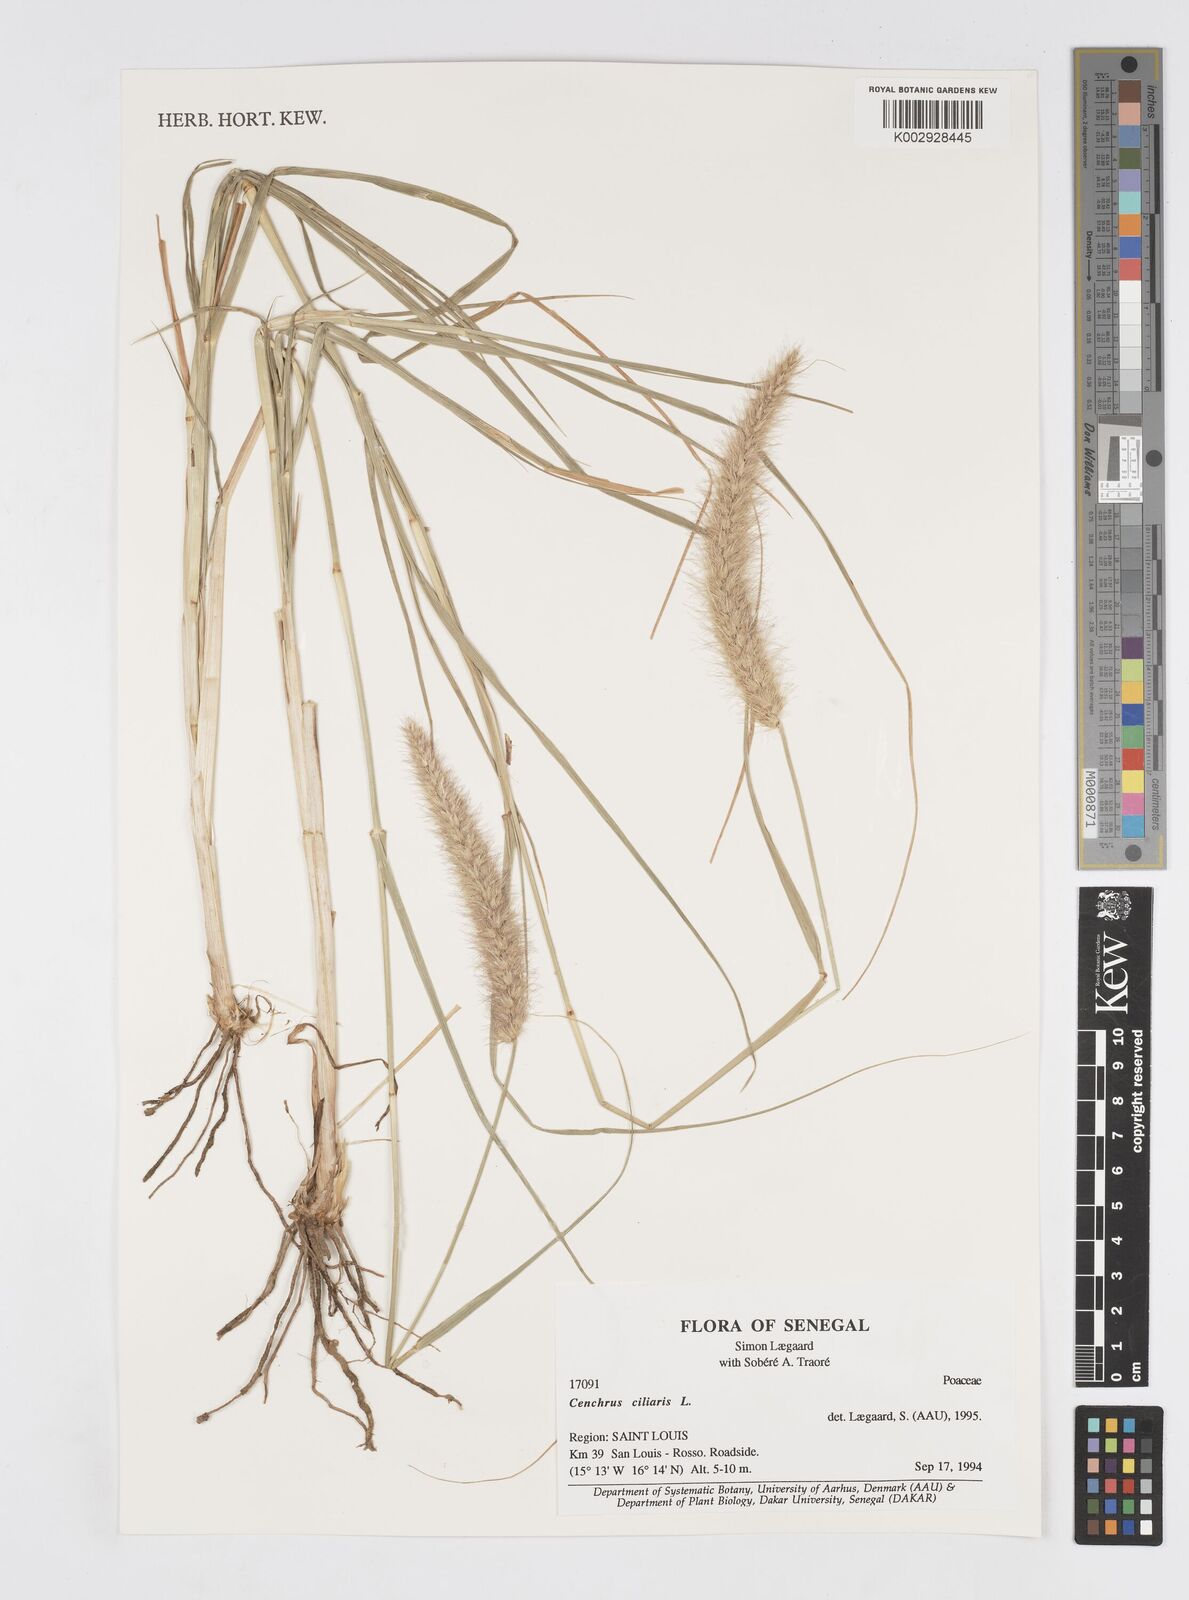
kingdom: Plantae
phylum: Tracheophyta
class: Liliopsida
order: Poales
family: Poaceae
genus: Cenchrus
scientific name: Cenchrus ciliaris
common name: Buffelgrass
